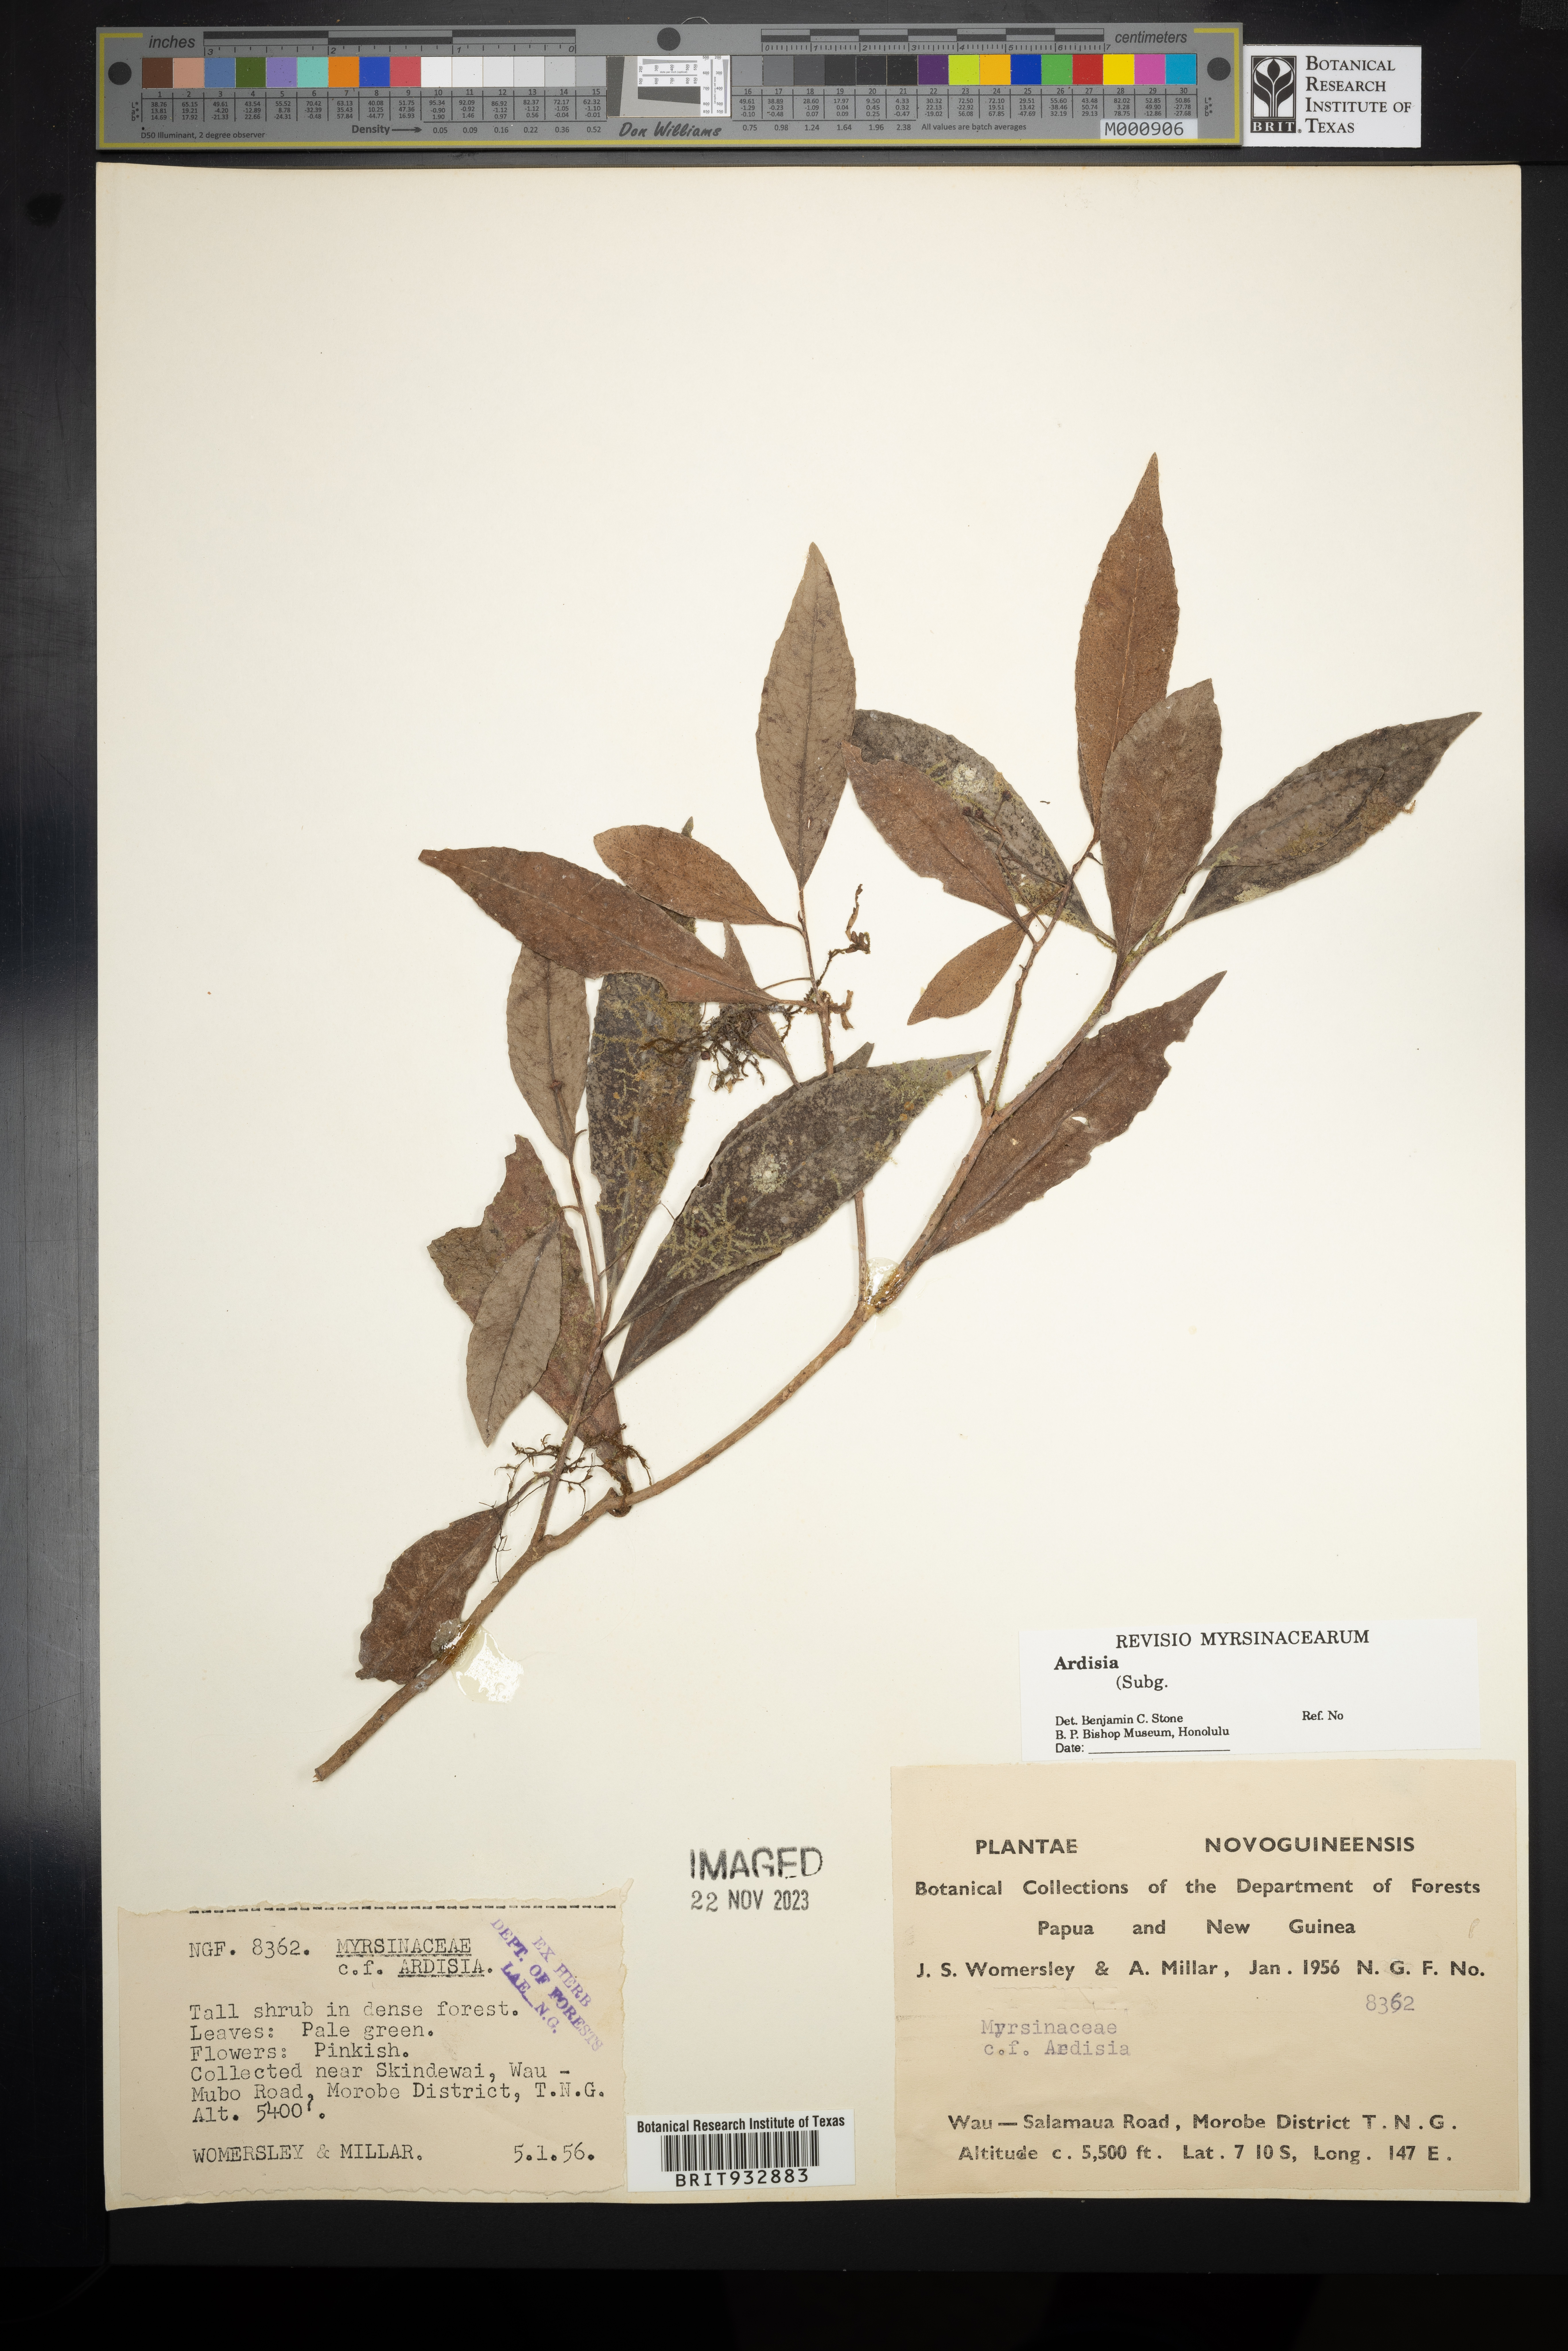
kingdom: Plantae
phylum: Tracheophyta
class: Magnoliopsida
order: Ericales
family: Primulaceae
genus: Ardisia
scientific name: Ardisia
